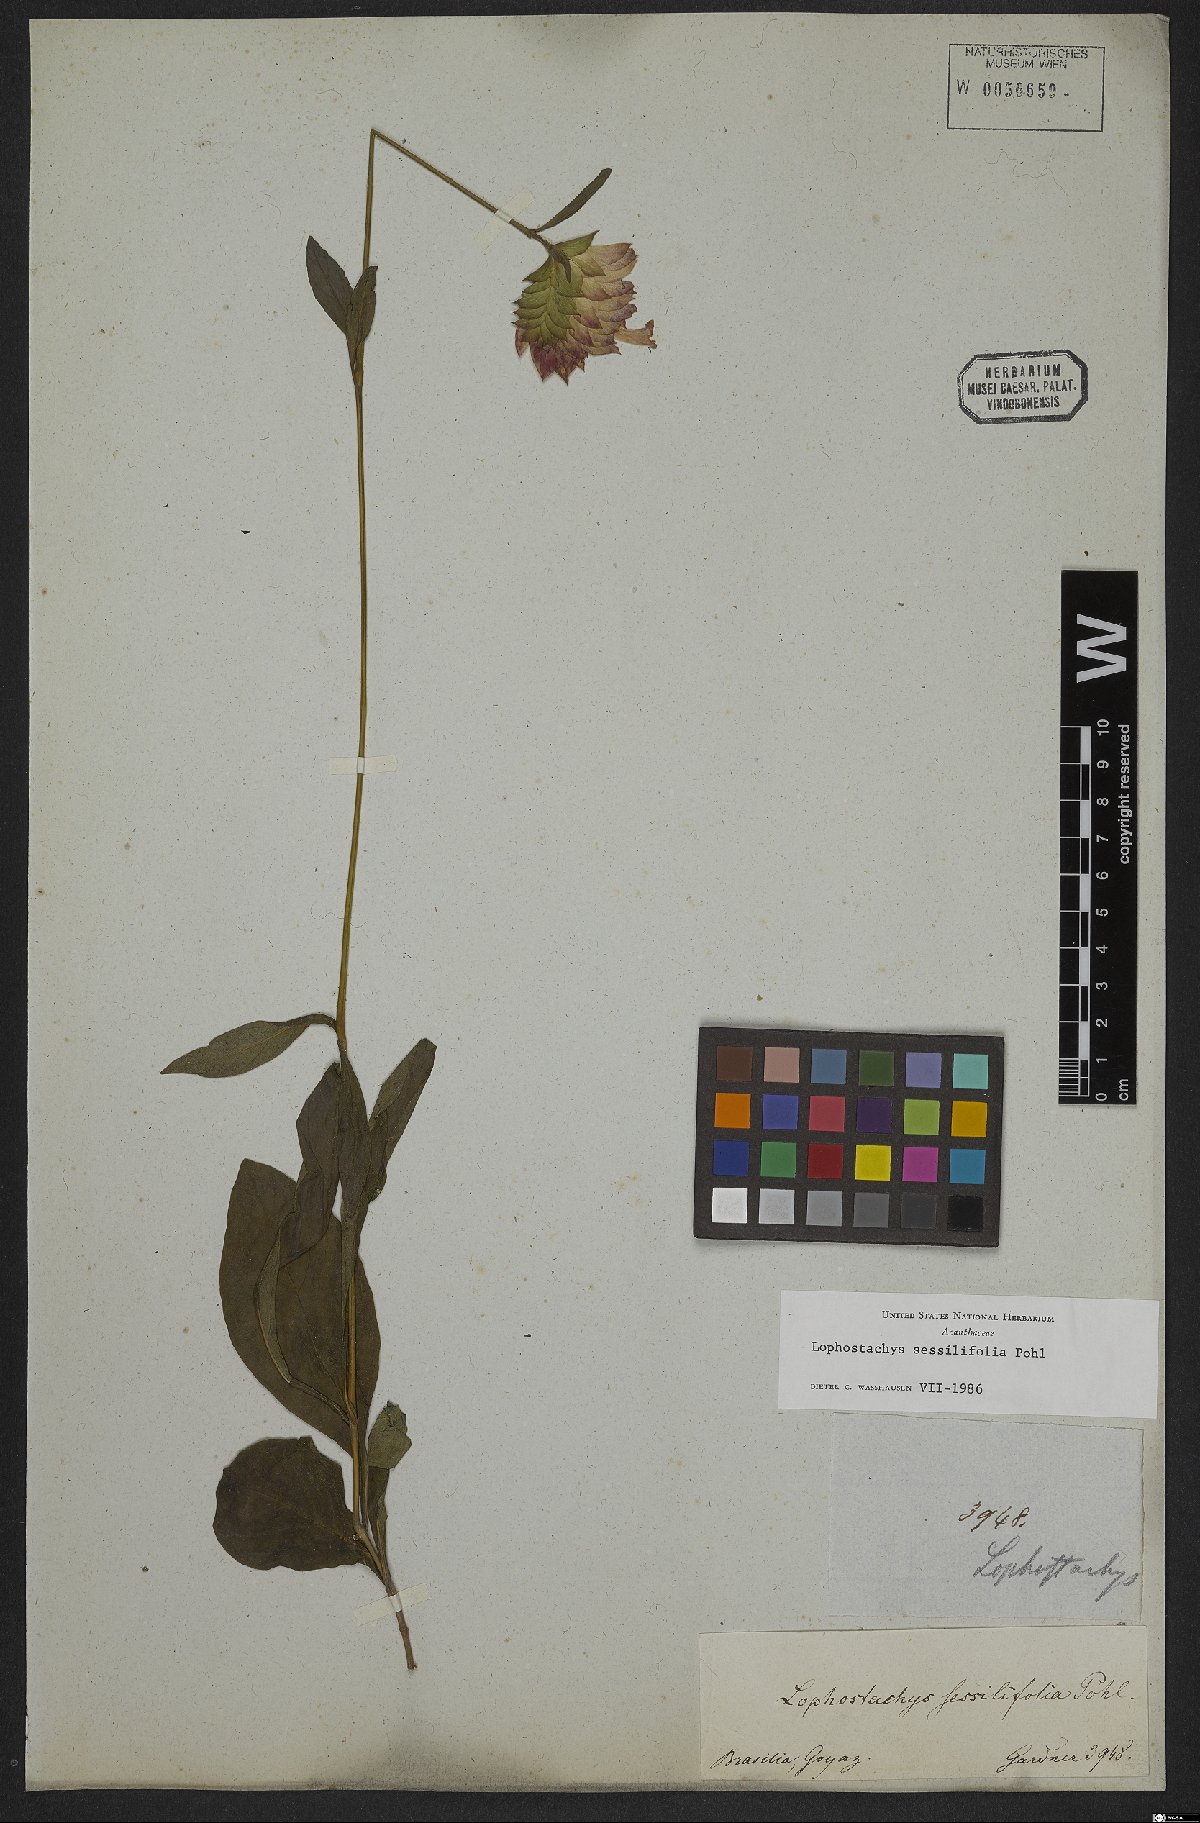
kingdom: Plantae
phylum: Tracheophyta
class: Magnoliopsida
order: Lamiales
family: Acanthaceae
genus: Lepidagathis
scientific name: Lepidagathis sessilifolia
